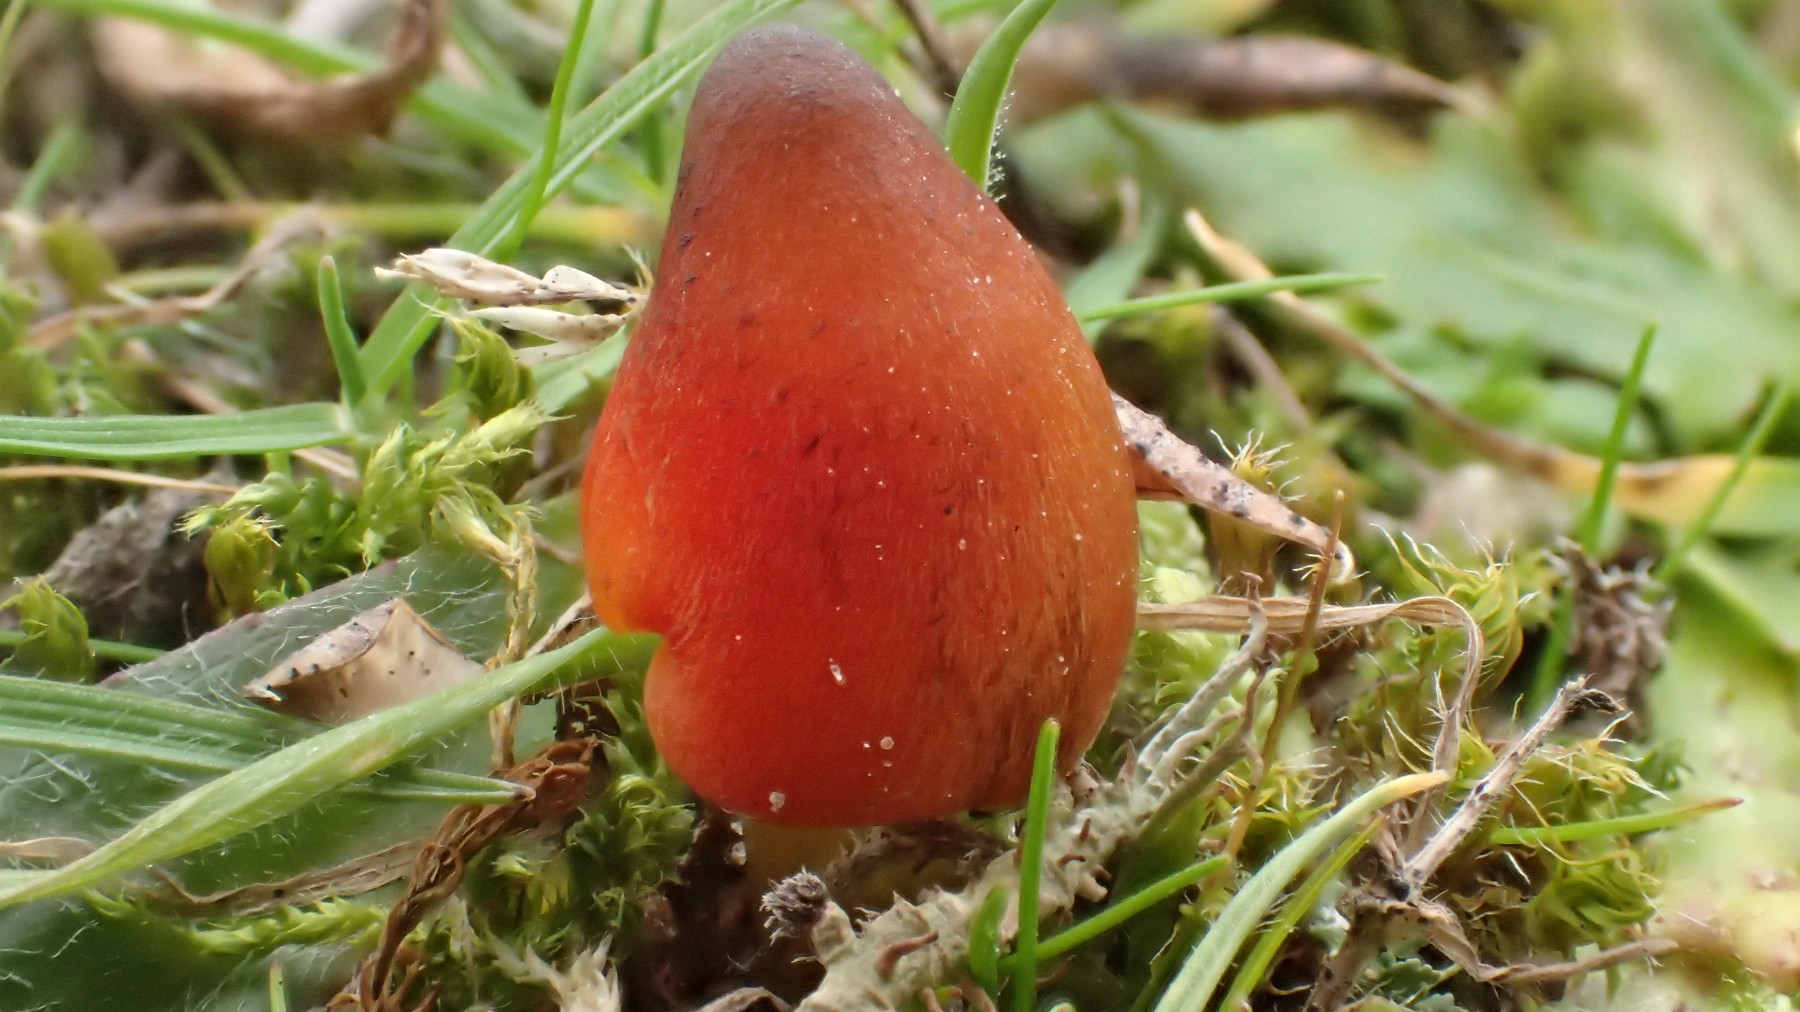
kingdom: Fungi
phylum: Basidiomycota
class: Agaricomycetes
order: Agaricales
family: Hygrophoraceae
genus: Hygrocybe
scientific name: Hygrocybe conica
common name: kegle-vokshat
